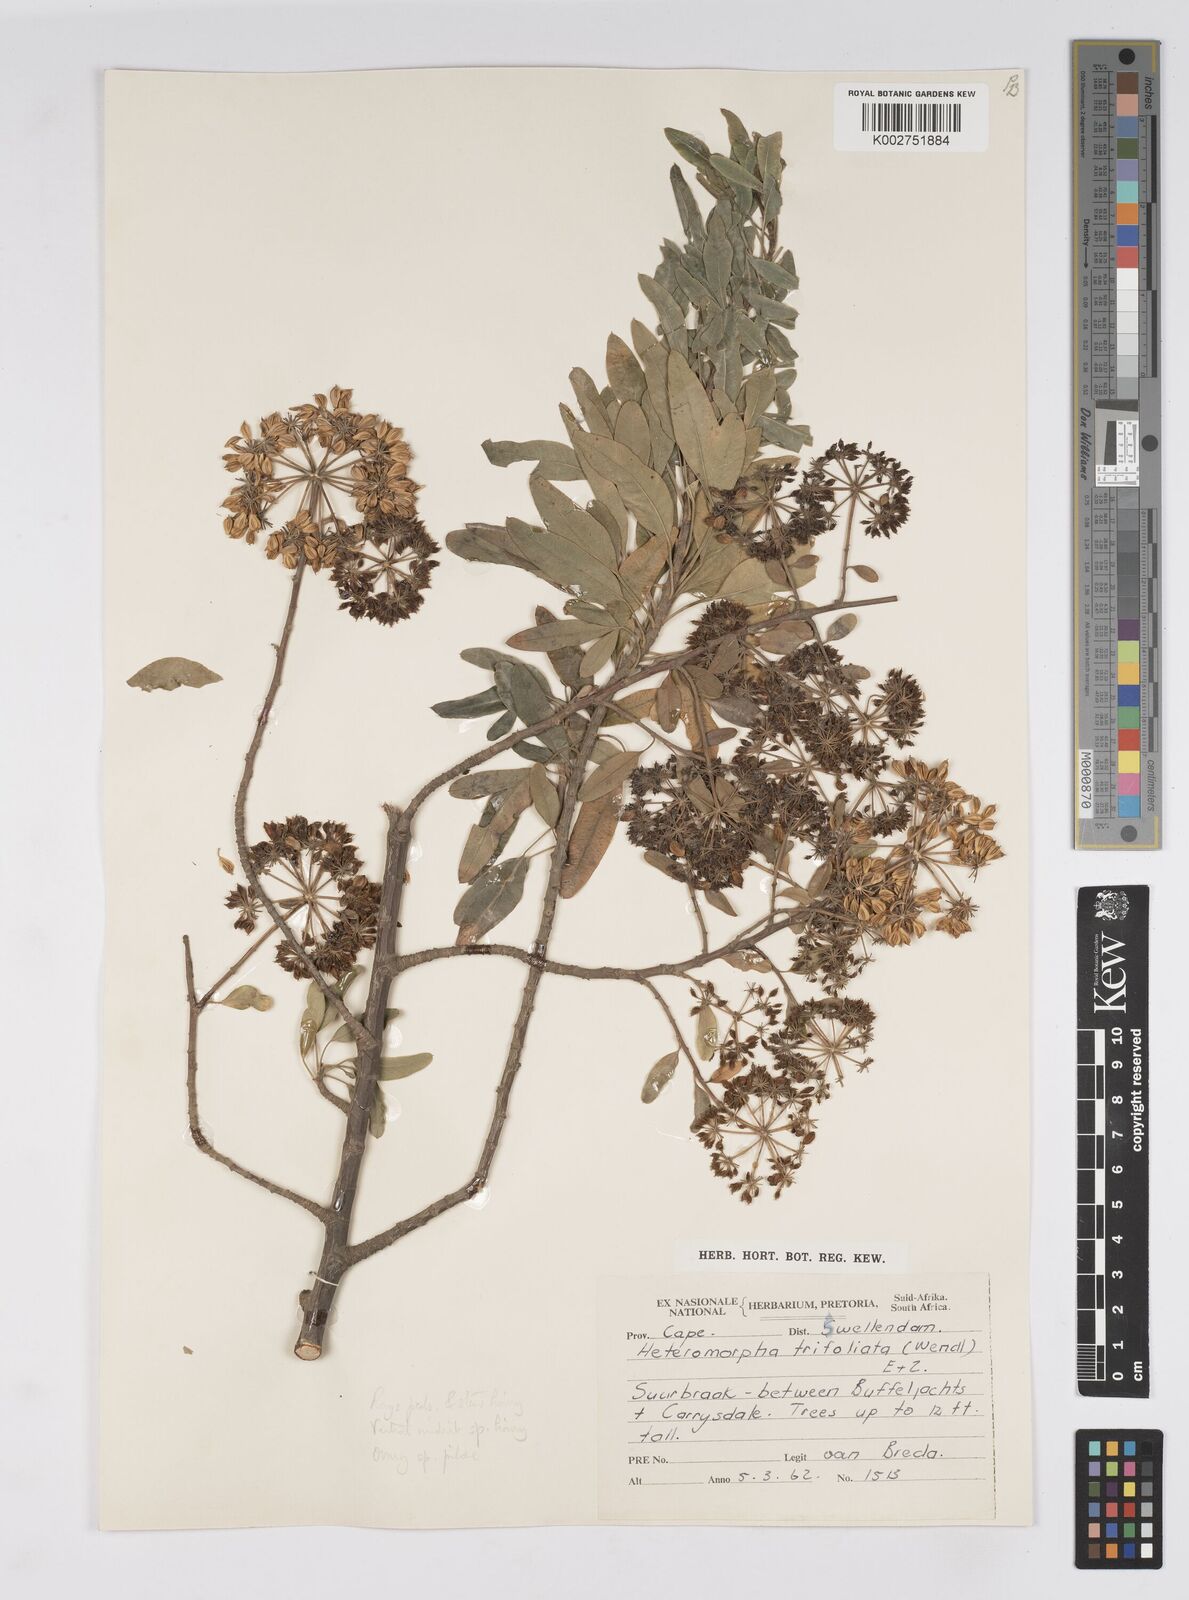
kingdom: Plantae
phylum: Tracheophyta
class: Magnoliopsida
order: Apiales
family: Apiaceae
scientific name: Apiaceae
